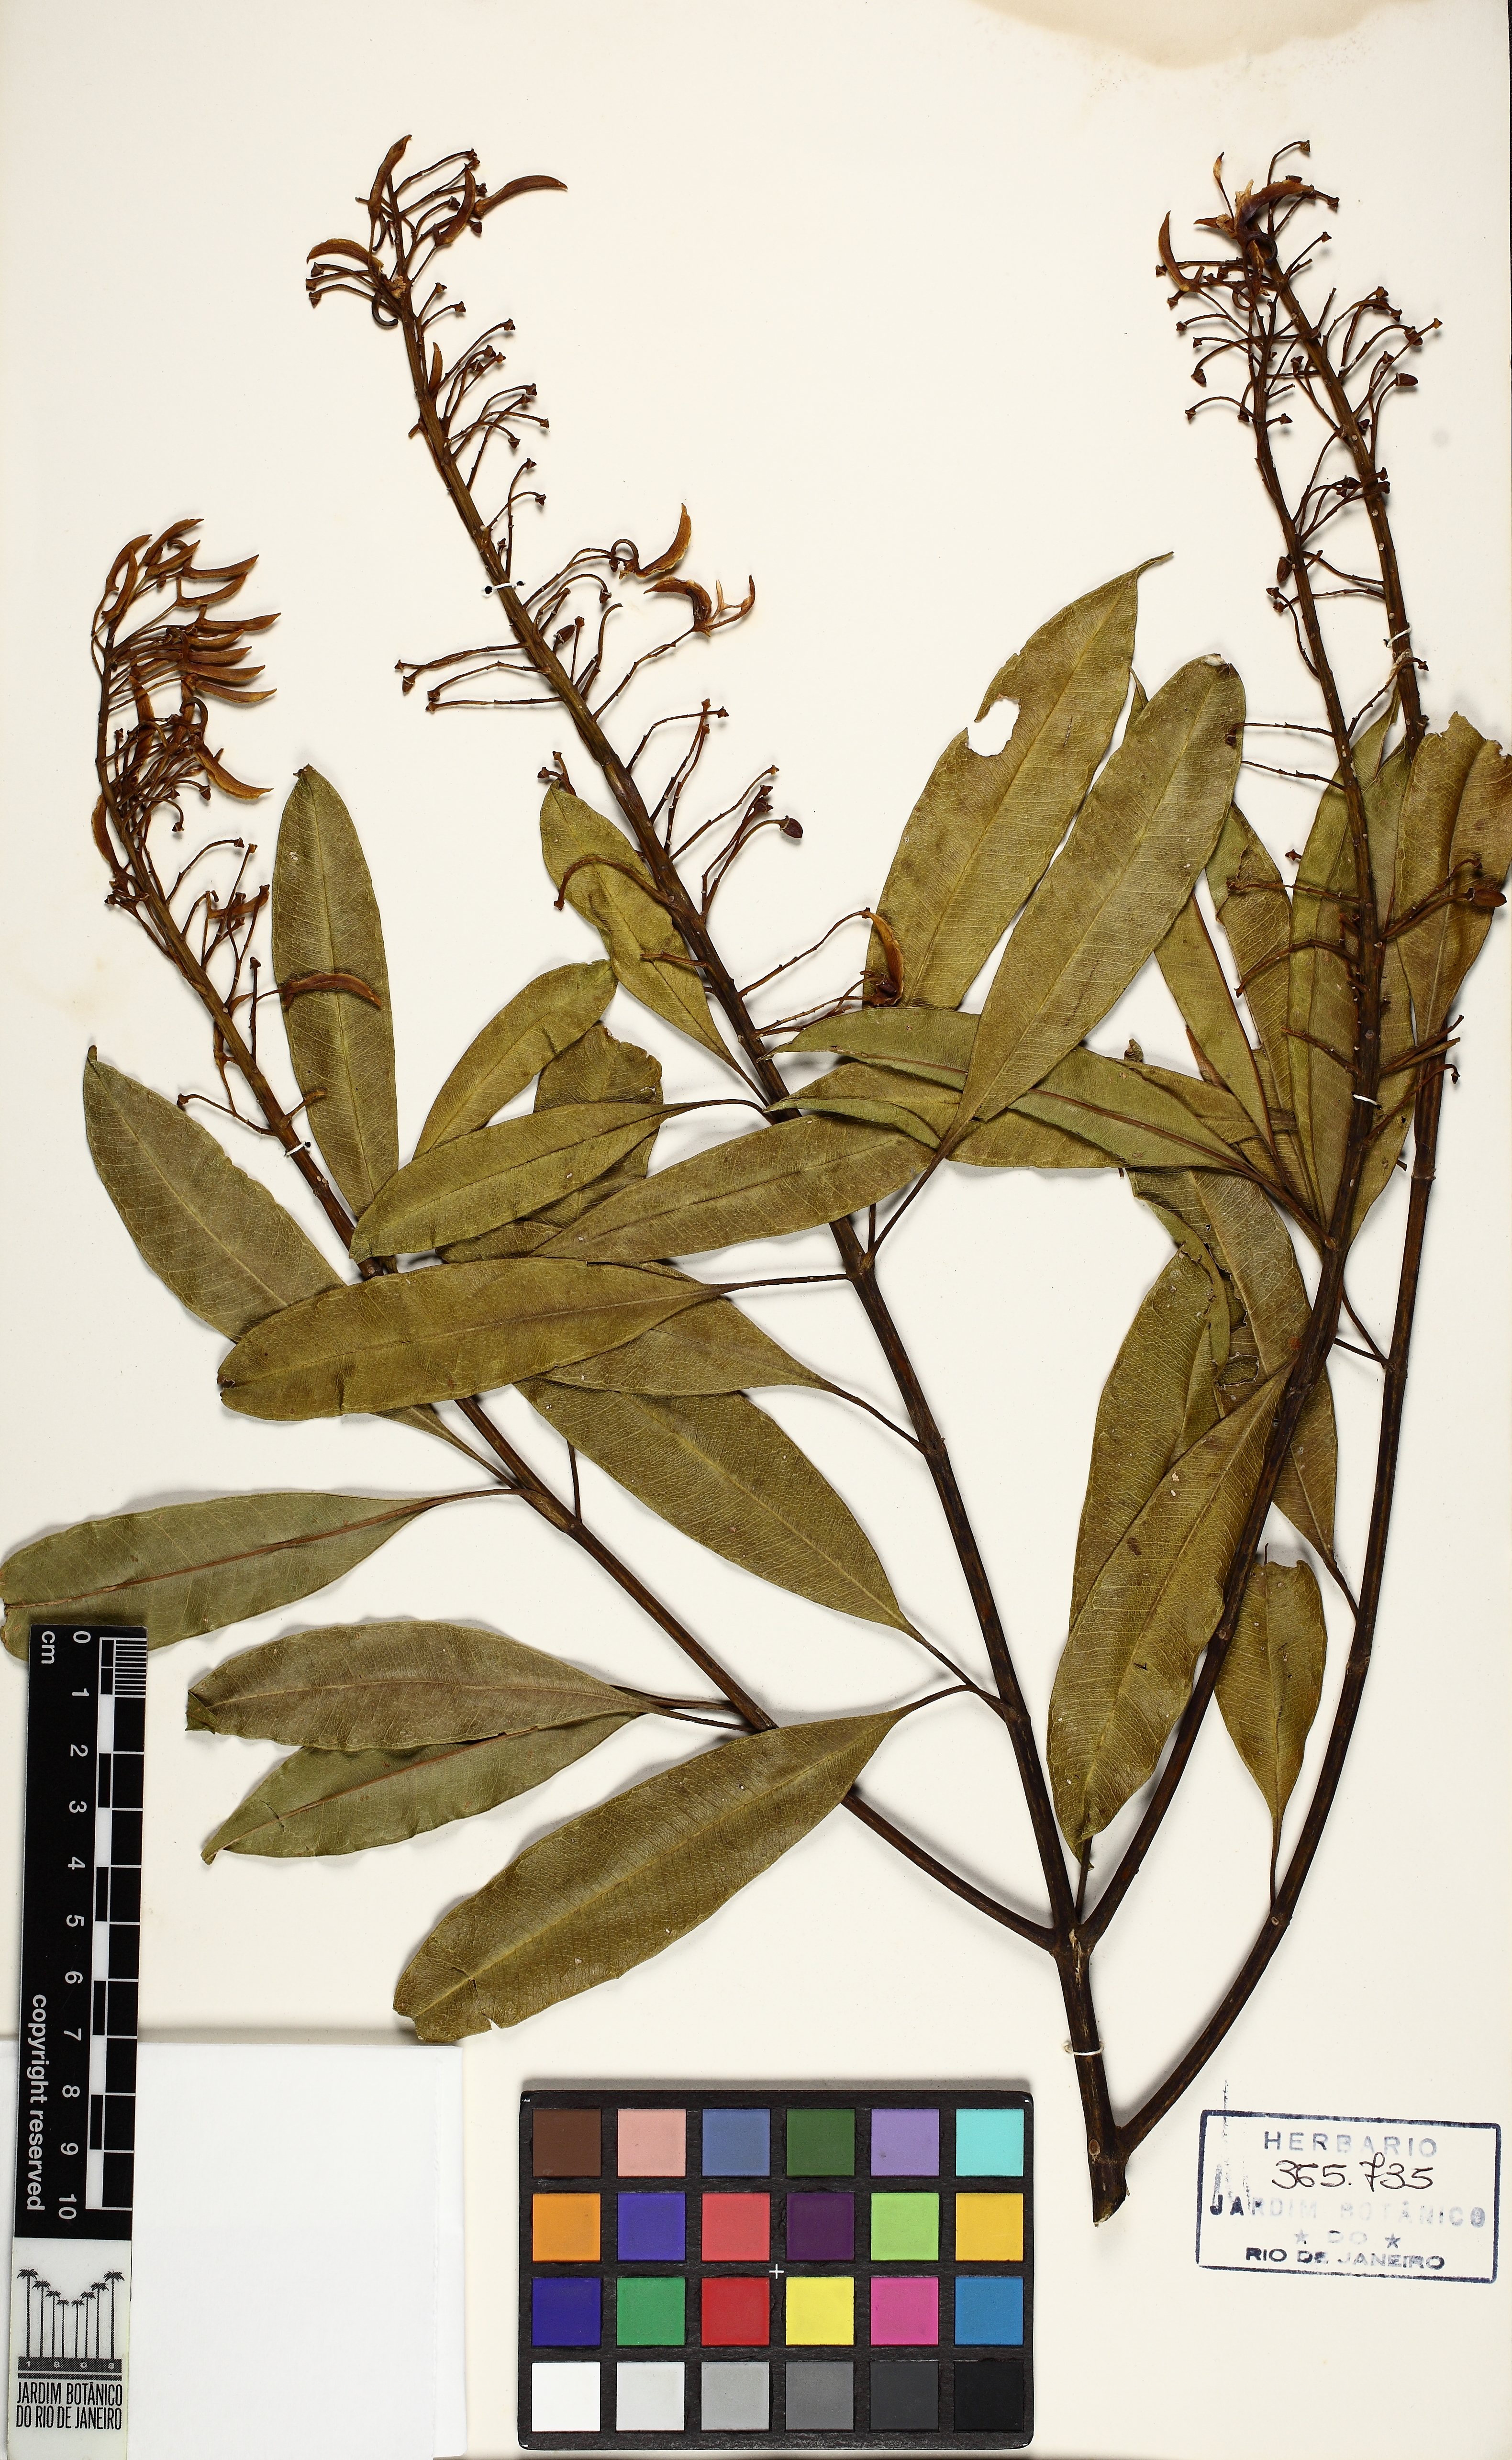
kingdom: Plantae
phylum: Tracheophyta
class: Magnoliopsida
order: Myrtales
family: Vochysiaceae
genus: Vochysia
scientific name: Vochysia bifalcata
